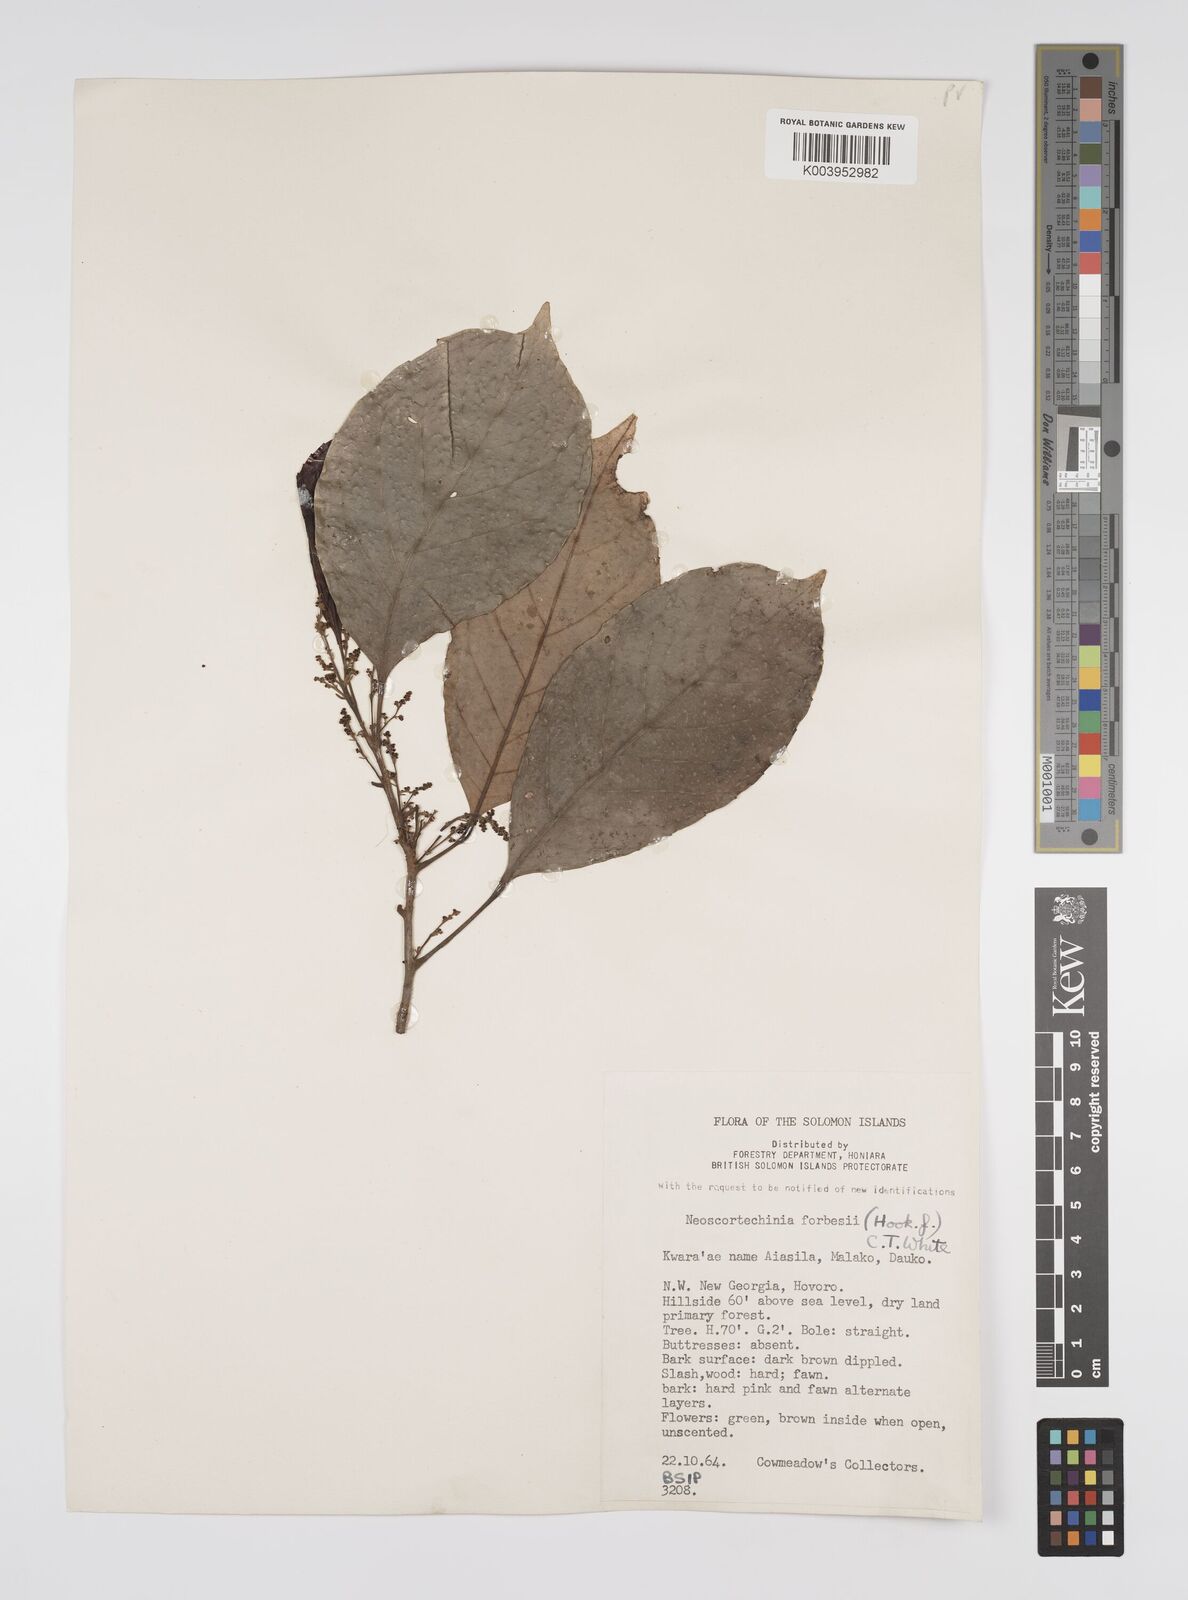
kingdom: Plantae
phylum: Tracheophyta
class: Magnoliopsida
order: Malpighiales
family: Euphorbiaceae
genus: Neoscortechinia
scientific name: Neoscortechinia forbesii
